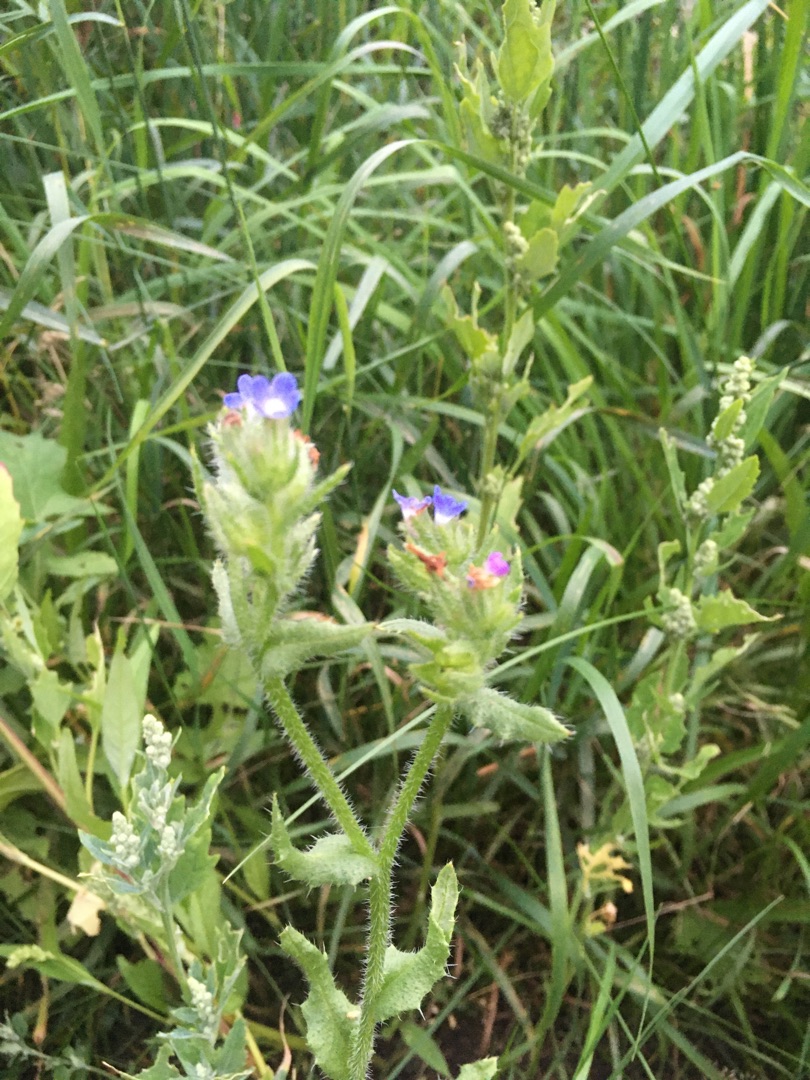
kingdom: Plantae
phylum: Tracheophyta
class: Magnoliopsida
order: Boraginales
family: Boraginaceae
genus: Lycopsis
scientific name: Lycopsis arvensis
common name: Krumhals
